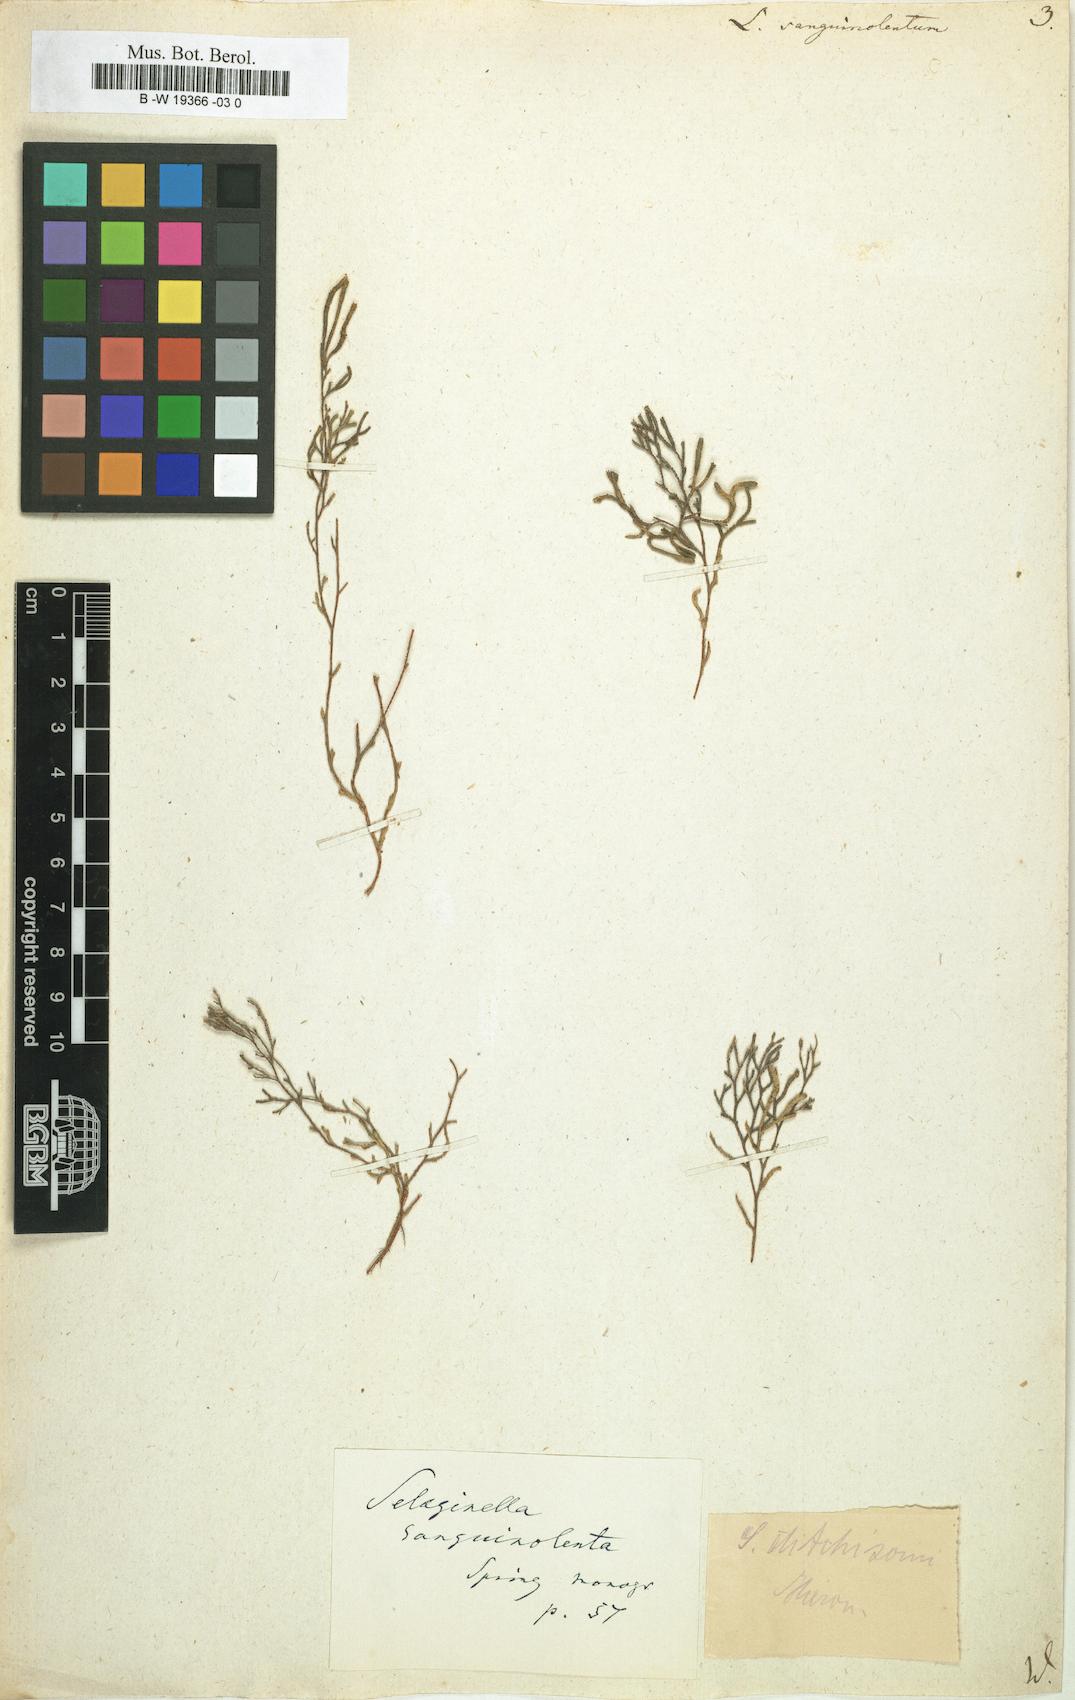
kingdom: Plantae
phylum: Tracheophyta
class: Lycopodiopsida
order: Selaginellales
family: Selaginellaceae
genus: Selaginella
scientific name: Selaginella
